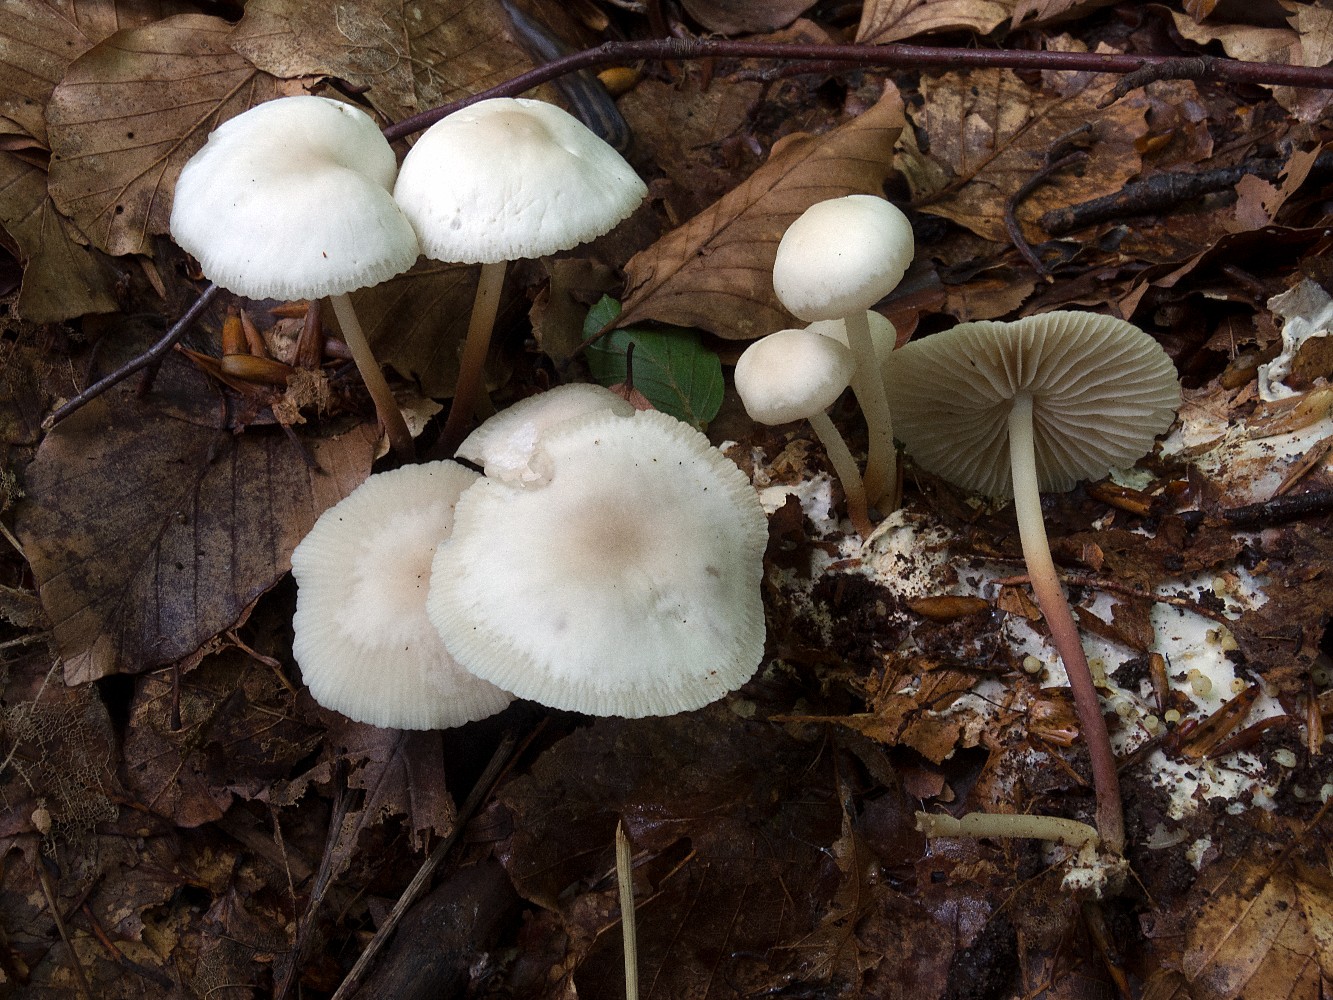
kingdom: Fungi
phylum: Basidiomycota
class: Agaricomycetes
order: Agaricales
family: Marasmiaceae
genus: Marasmius
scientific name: Marasmius wynneae
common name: hvælvet bruskhat
